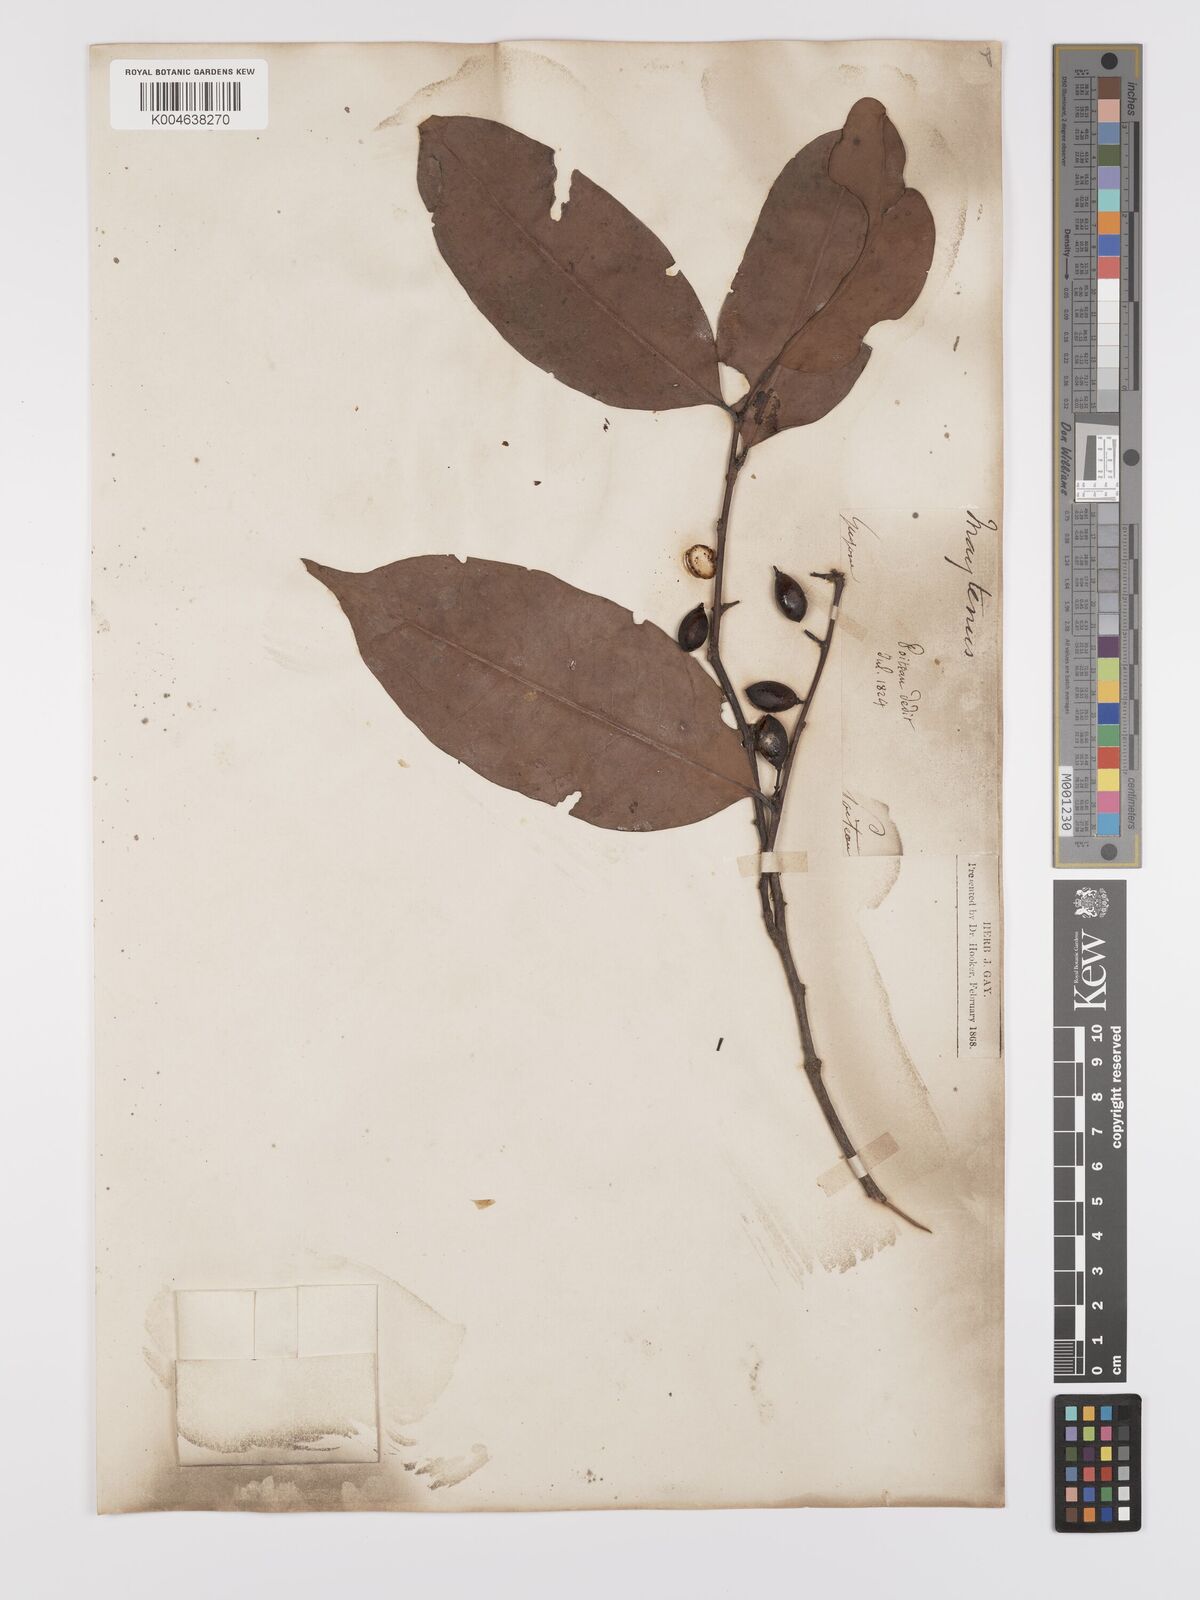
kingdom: Plantae
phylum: Tracheophyta
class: Magnoliopsida
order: Celastrales
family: Celastraceae
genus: Maytenus
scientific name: Maytenus
